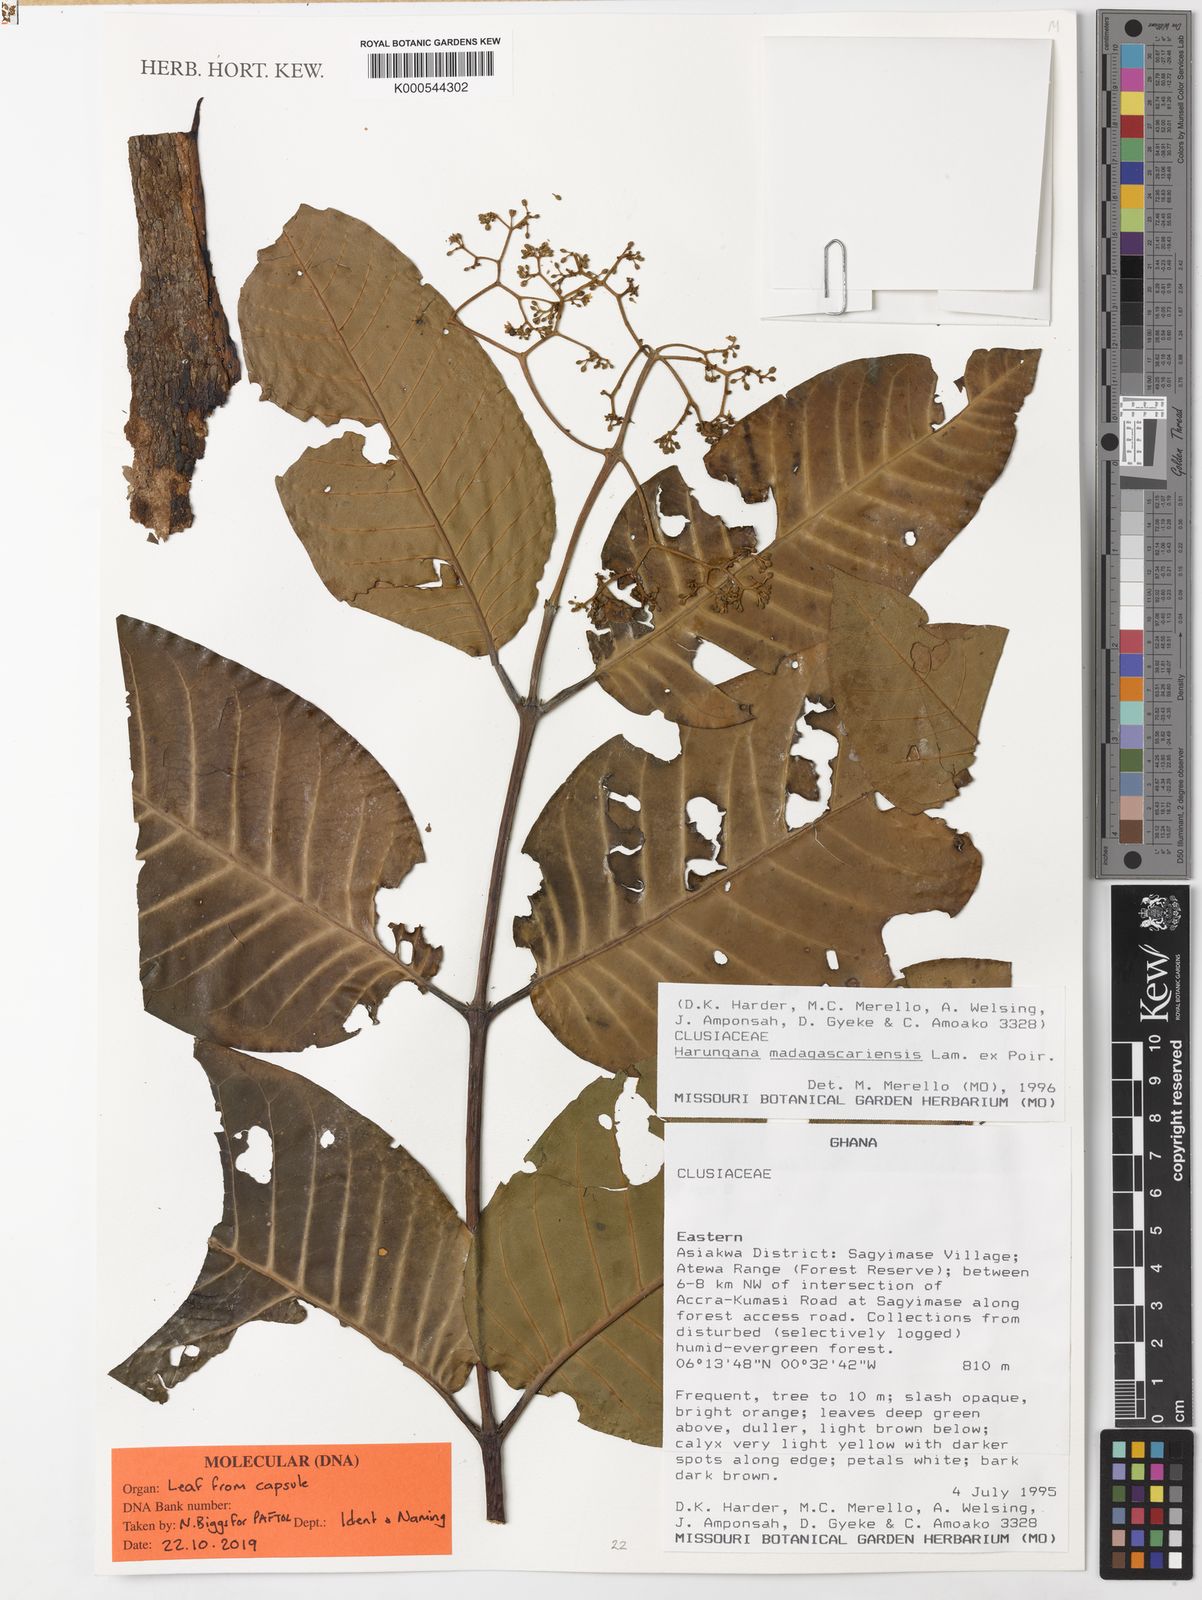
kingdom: Plantae
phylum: Tracheophyta
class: Magnoliopsida
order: Malpighiales
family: Hypericaceae
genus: Harungana
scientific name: Harungana madagascariensis
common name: Orange milktree
